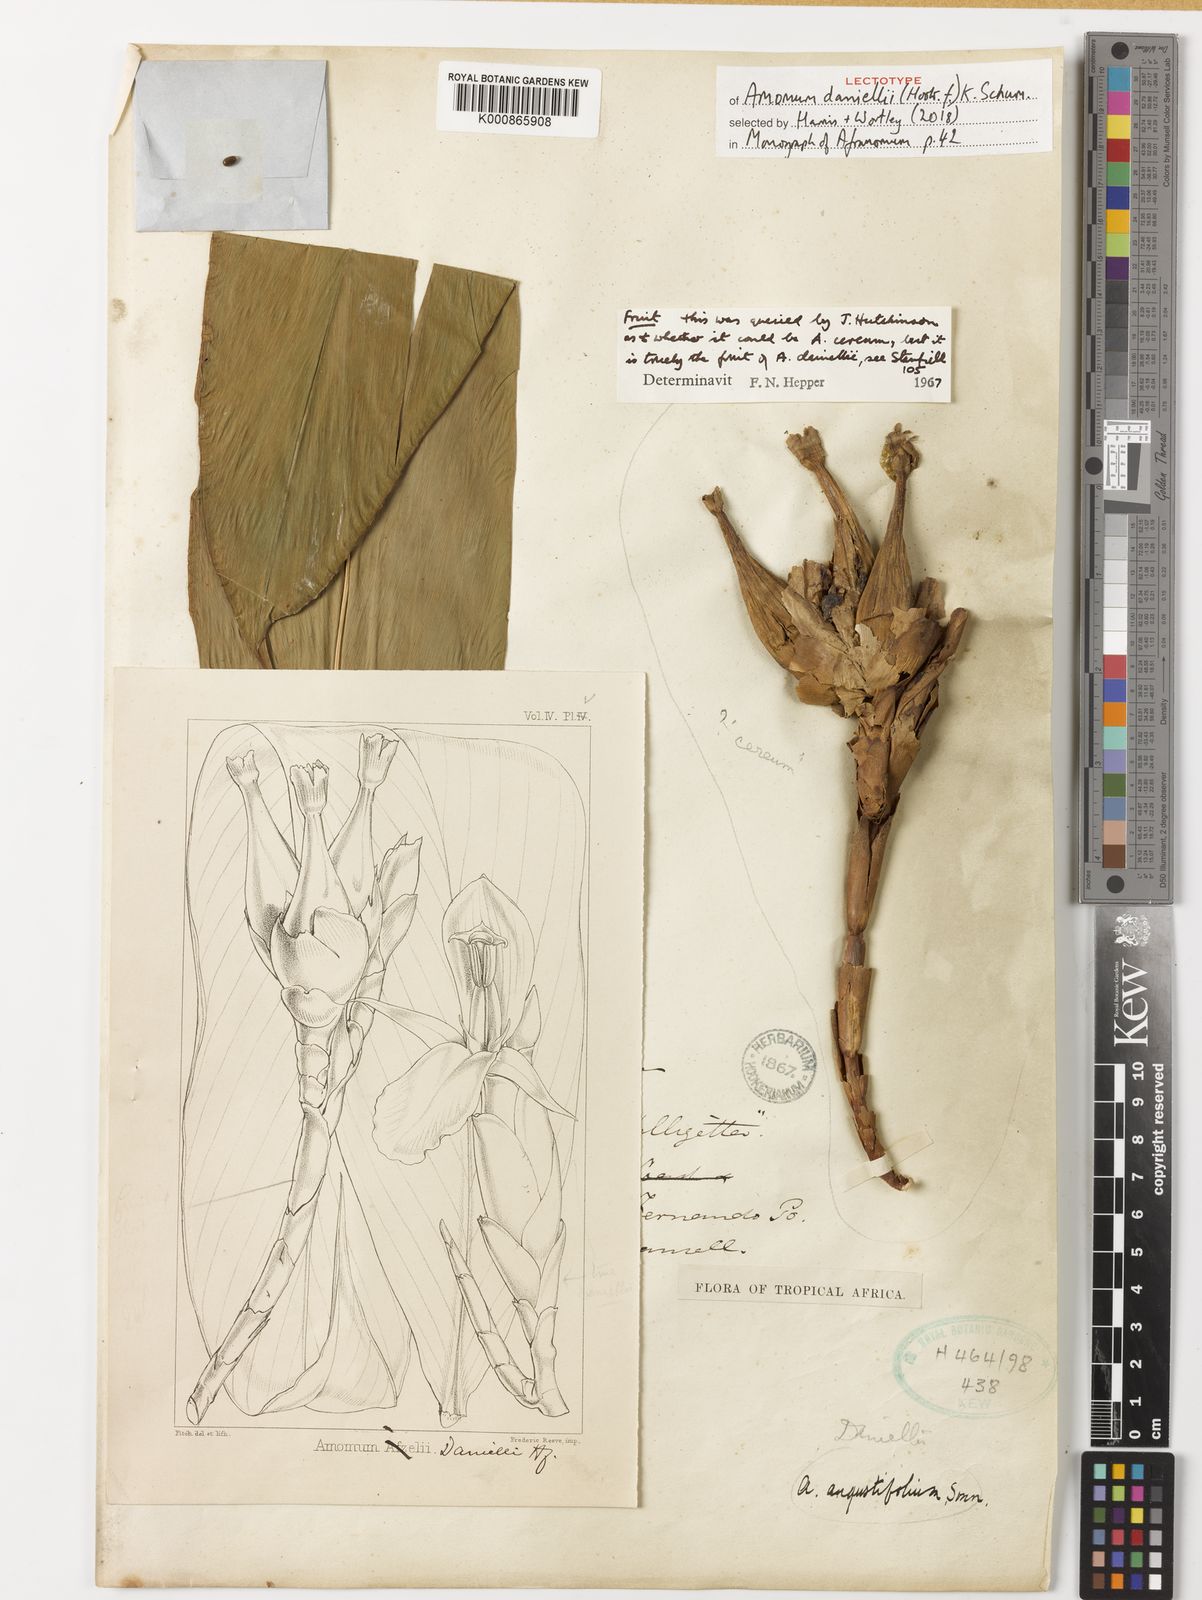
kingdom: Plantae
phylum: Tracheophyta
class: Liliopsida
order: Zingiberales
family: Zingiberaceae
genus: Aframomum
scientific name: Aframomum daniellii
